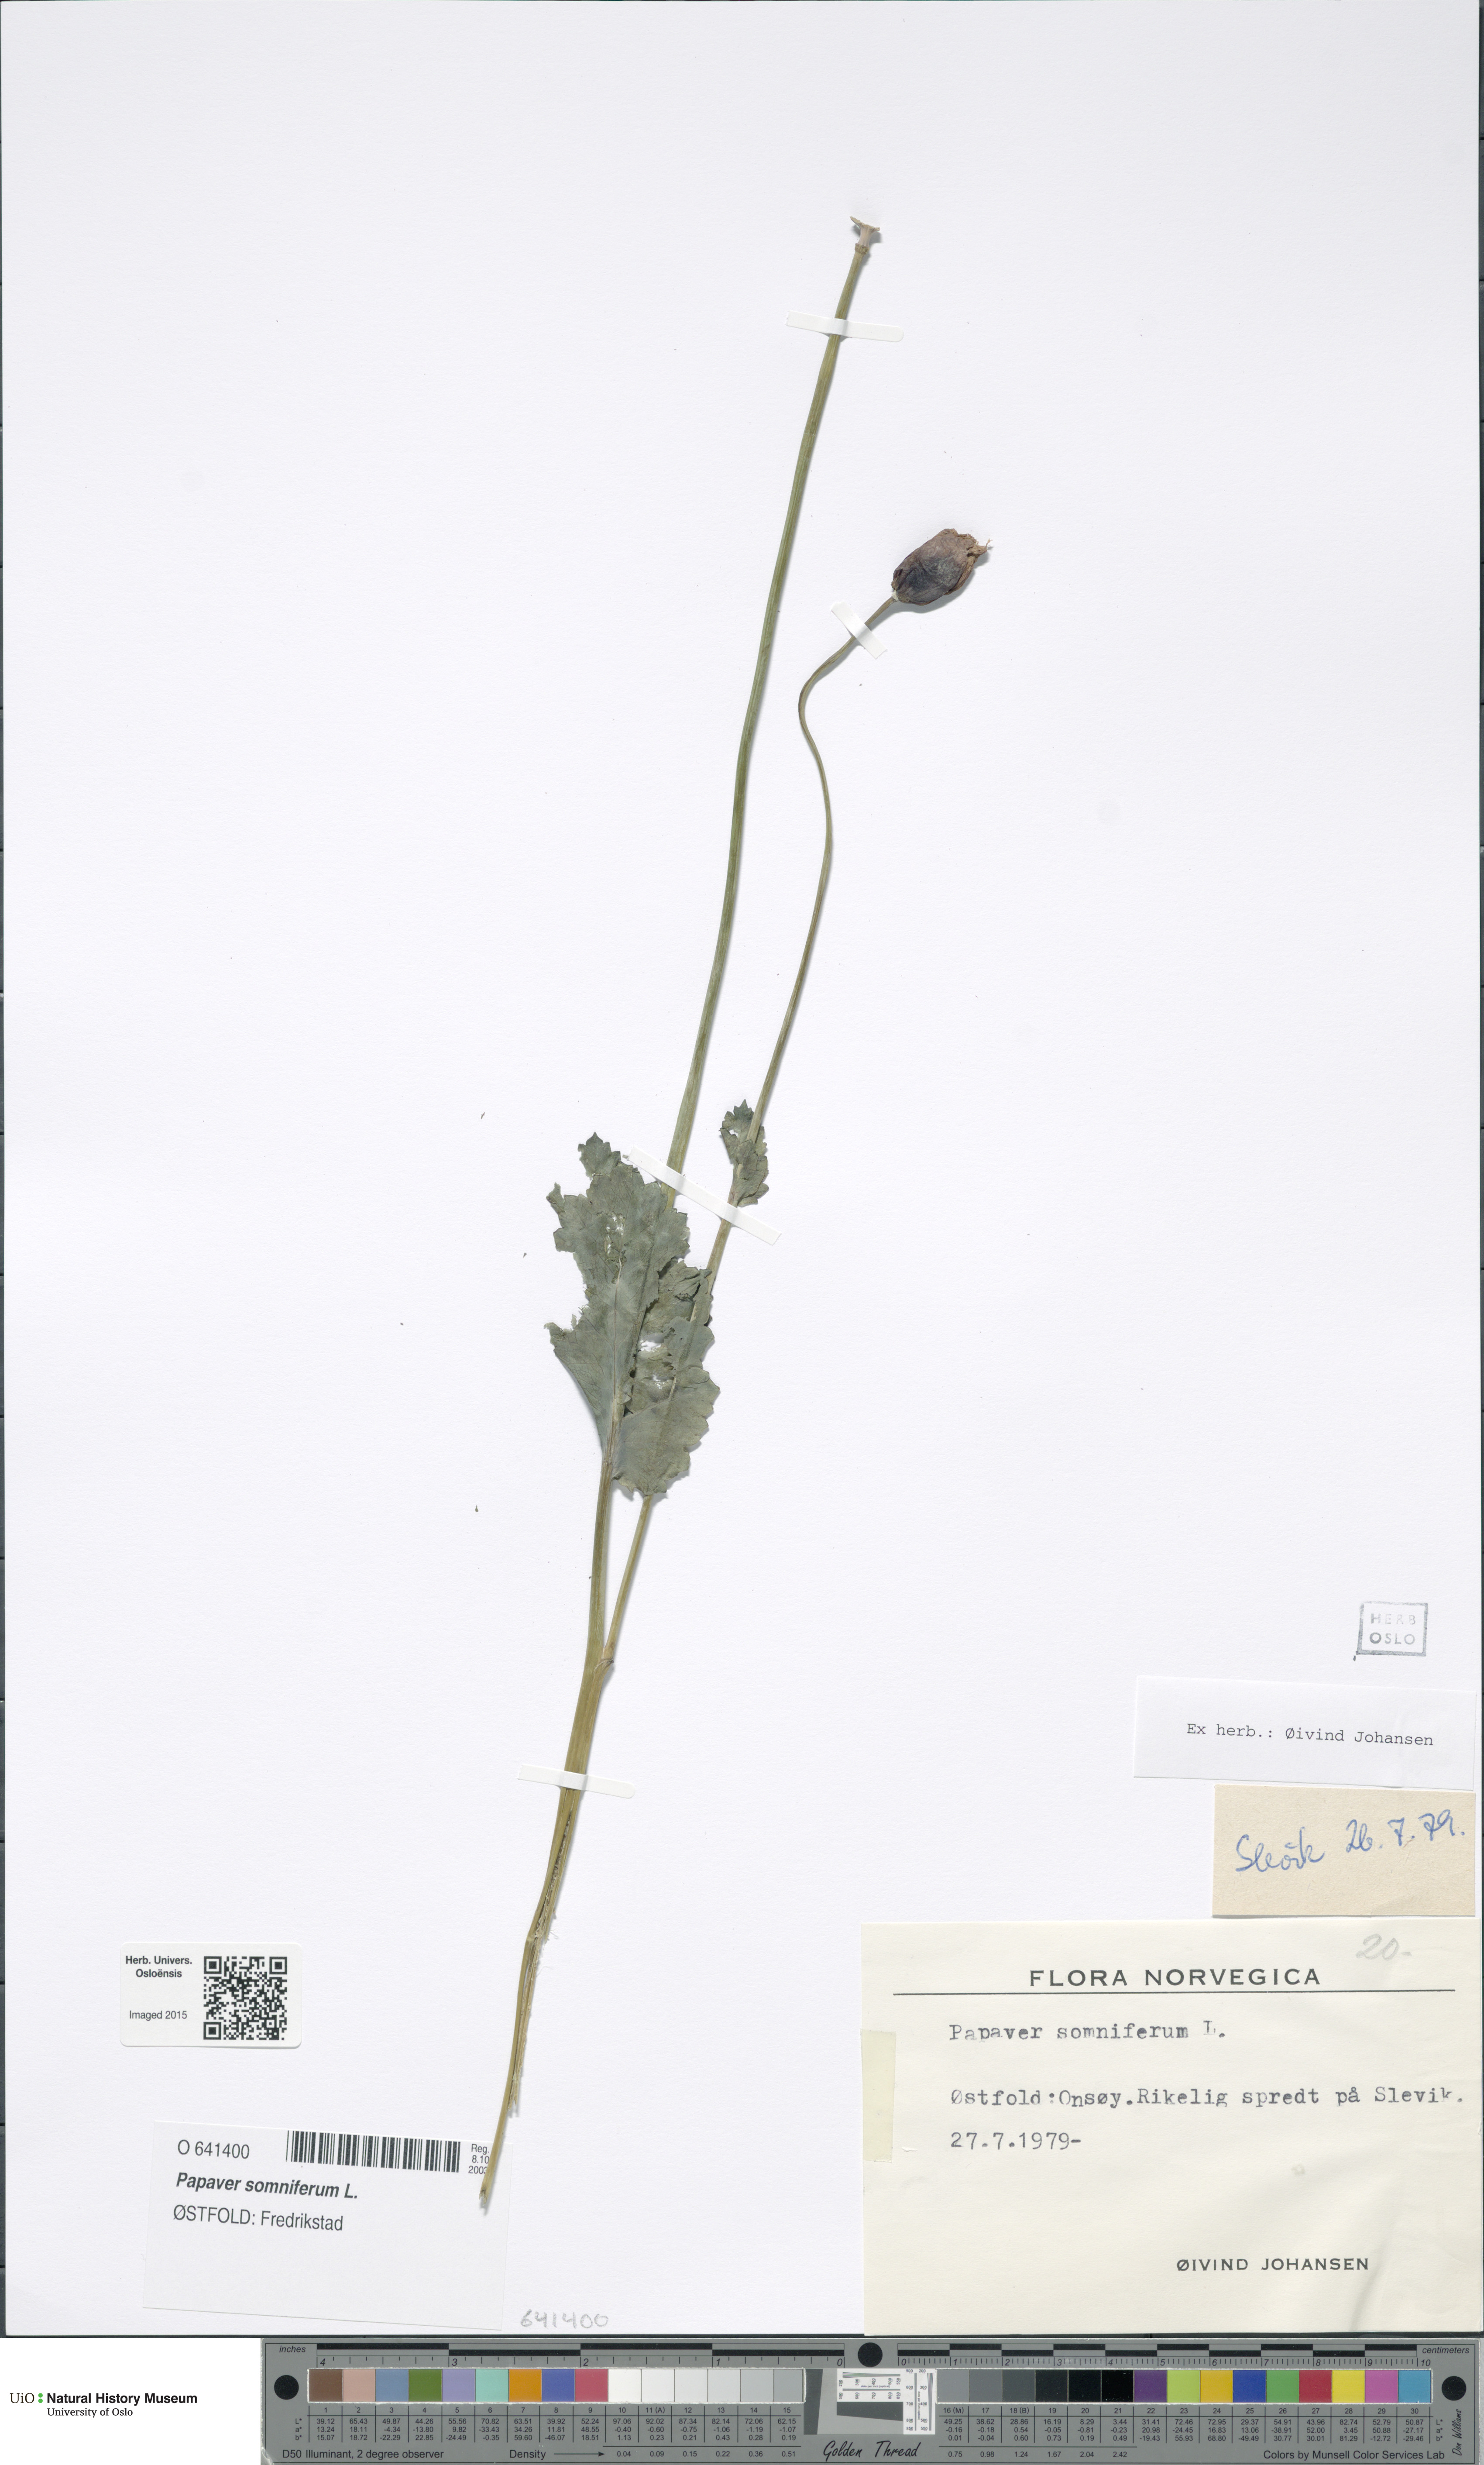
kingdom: Plantae
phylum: Tracheophyta
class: Magnoliopsida
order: Ranunculales
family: Papaveraceae
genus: Papaver
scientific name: Papaver somniferum
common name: Opium poppy
